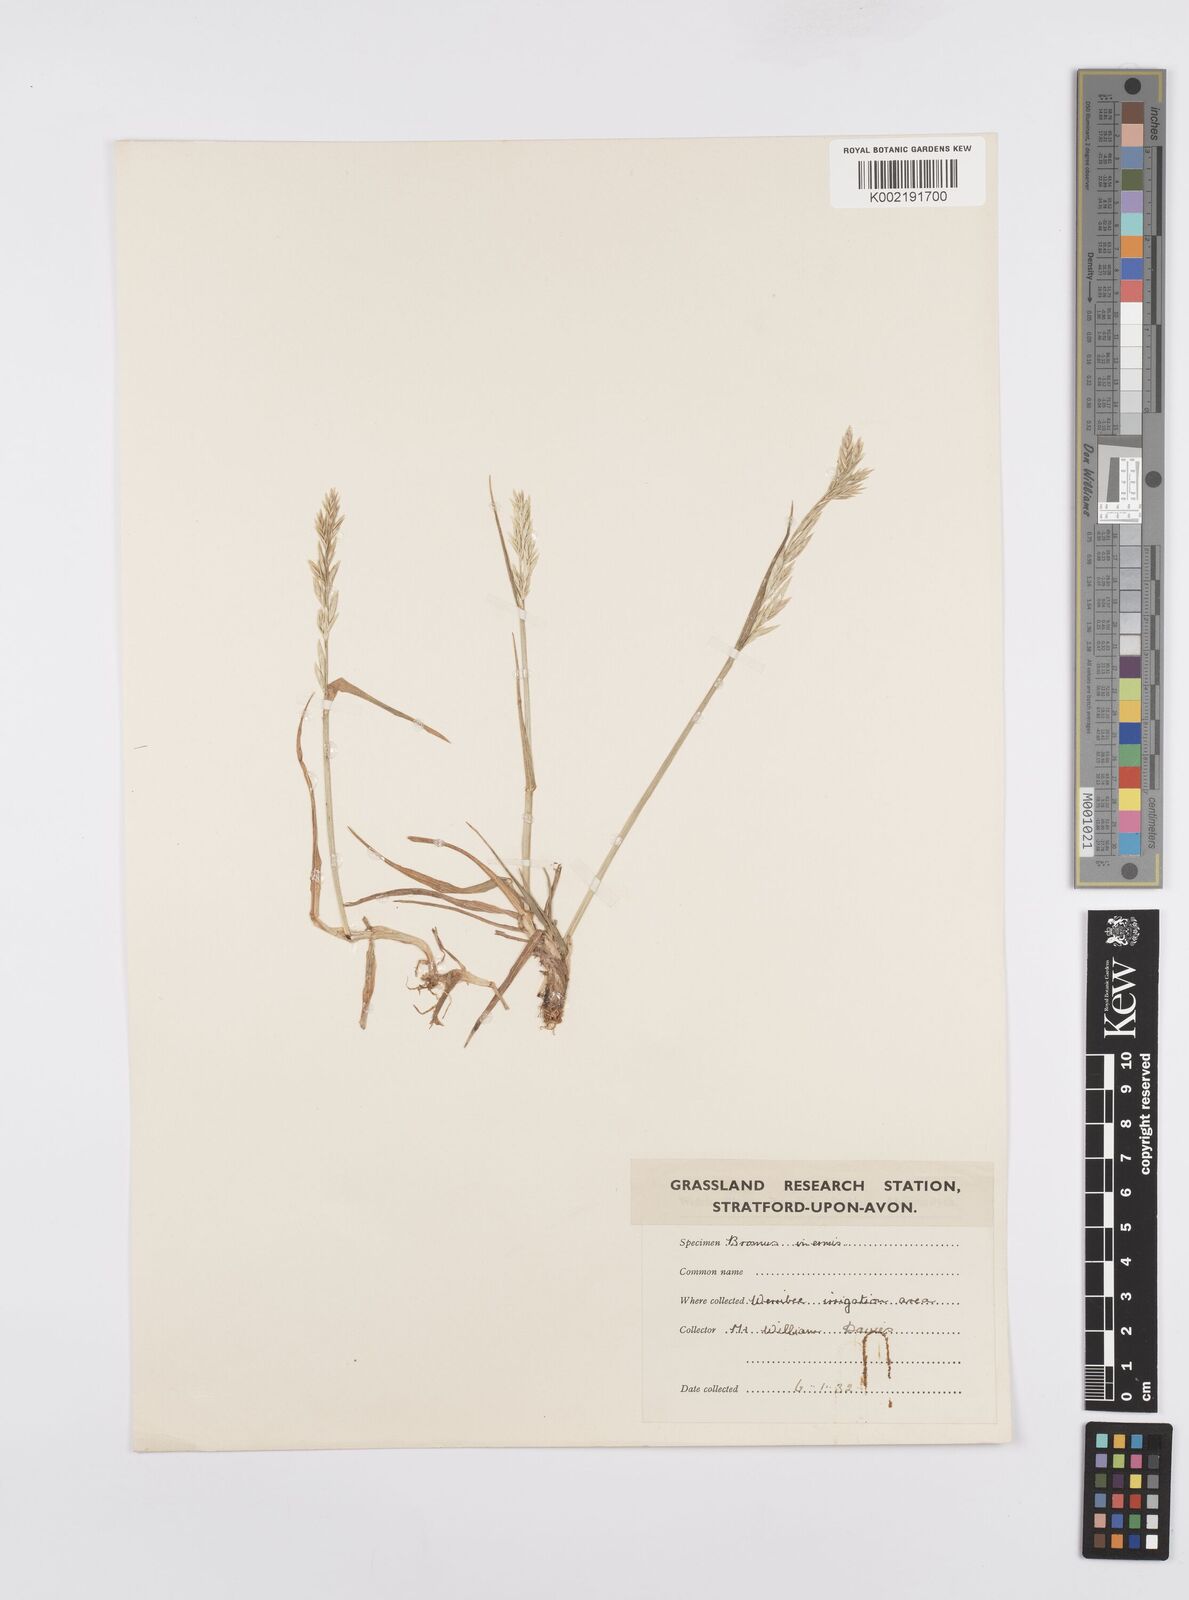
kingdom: Plantae
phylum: Tracheophyta
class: Liliopsida
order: Poales
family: Poaceae
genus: Catapodium
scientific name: Catapodium rigidum
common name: Fern-grass
